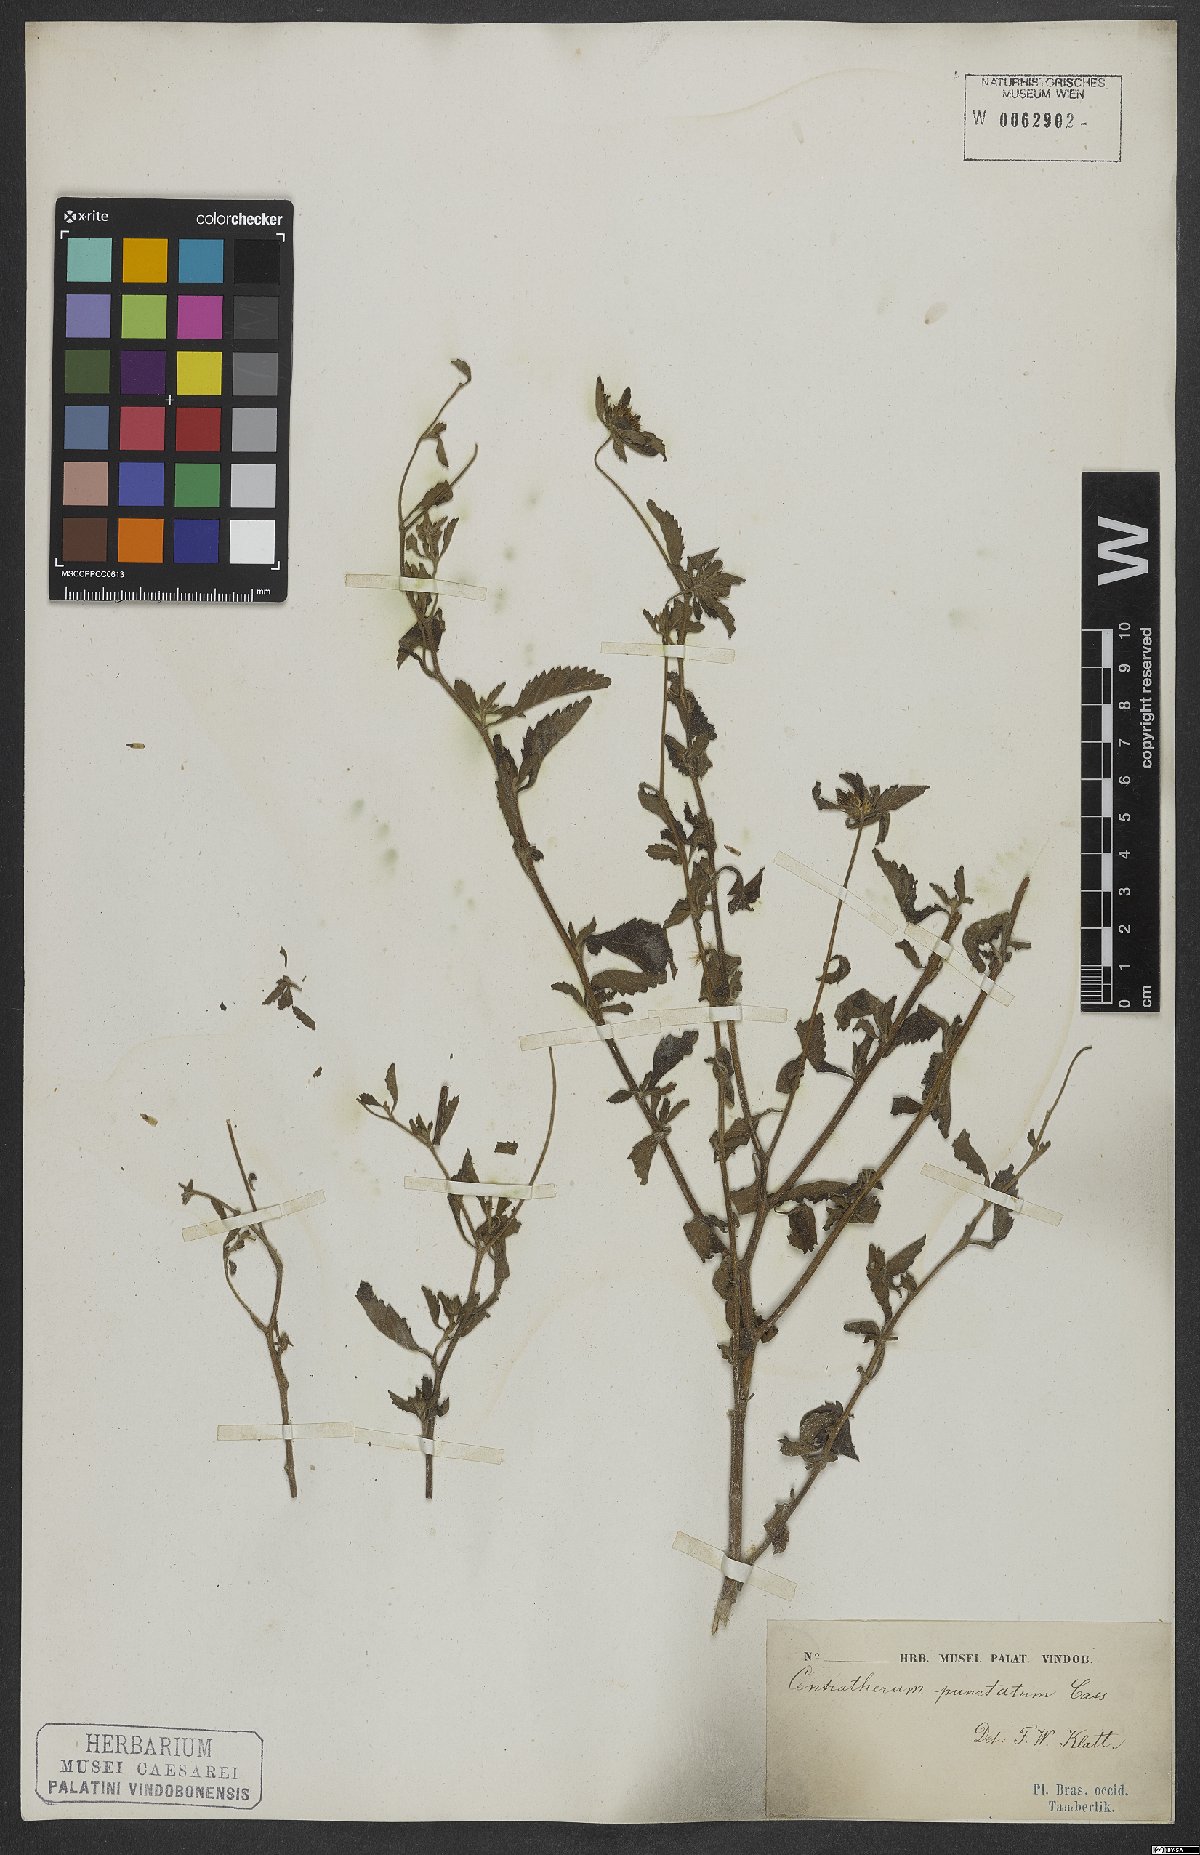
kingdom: Plantae
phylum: Tracheophyta
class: Magnoliopsida
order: Asterales
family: Asteraceae
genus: Centratherum
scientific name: Centratherum punctatum
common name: Larkdaisy
